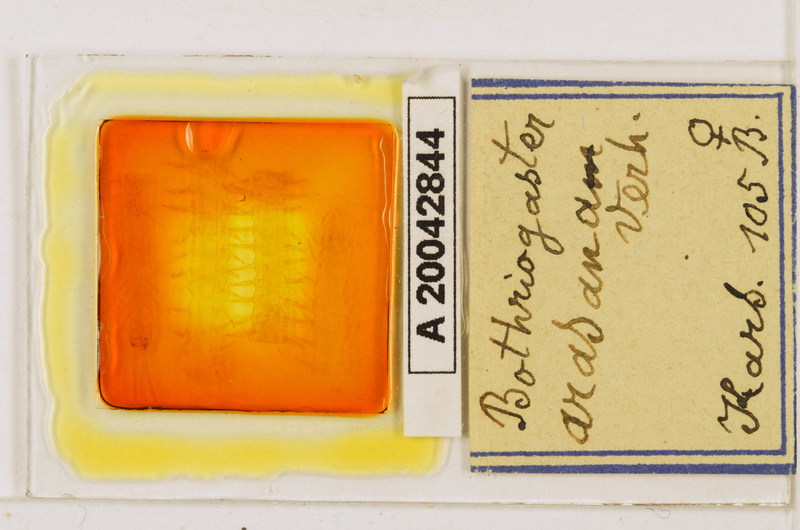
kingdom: Animalia
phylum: Arthropoda
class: Chilopoda
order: Geophilomorpha
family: Himantariidae
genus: Bothriogaster
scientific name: Bothriogaster signata
